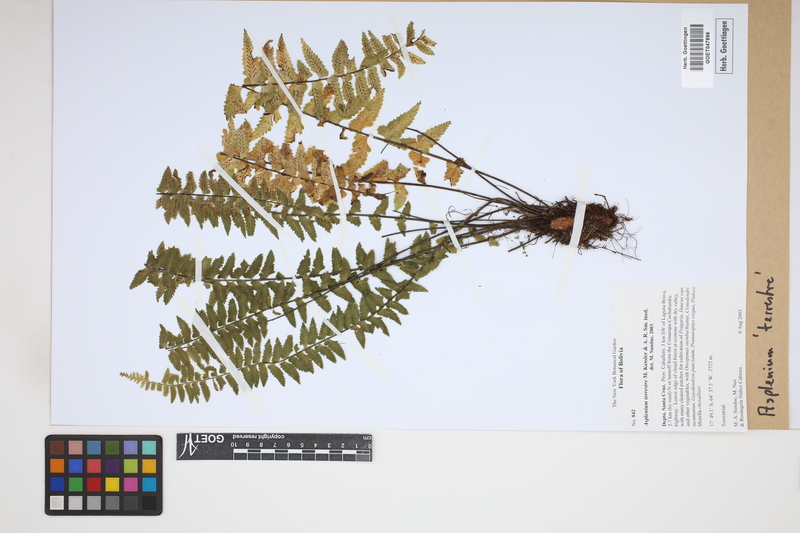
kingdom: Plantae
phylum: Tracheophyta
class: Polypodiopsida
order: Polypodiales
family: Aspleniaceae
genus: Asplenium
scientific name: Asplenium appendiculatum
